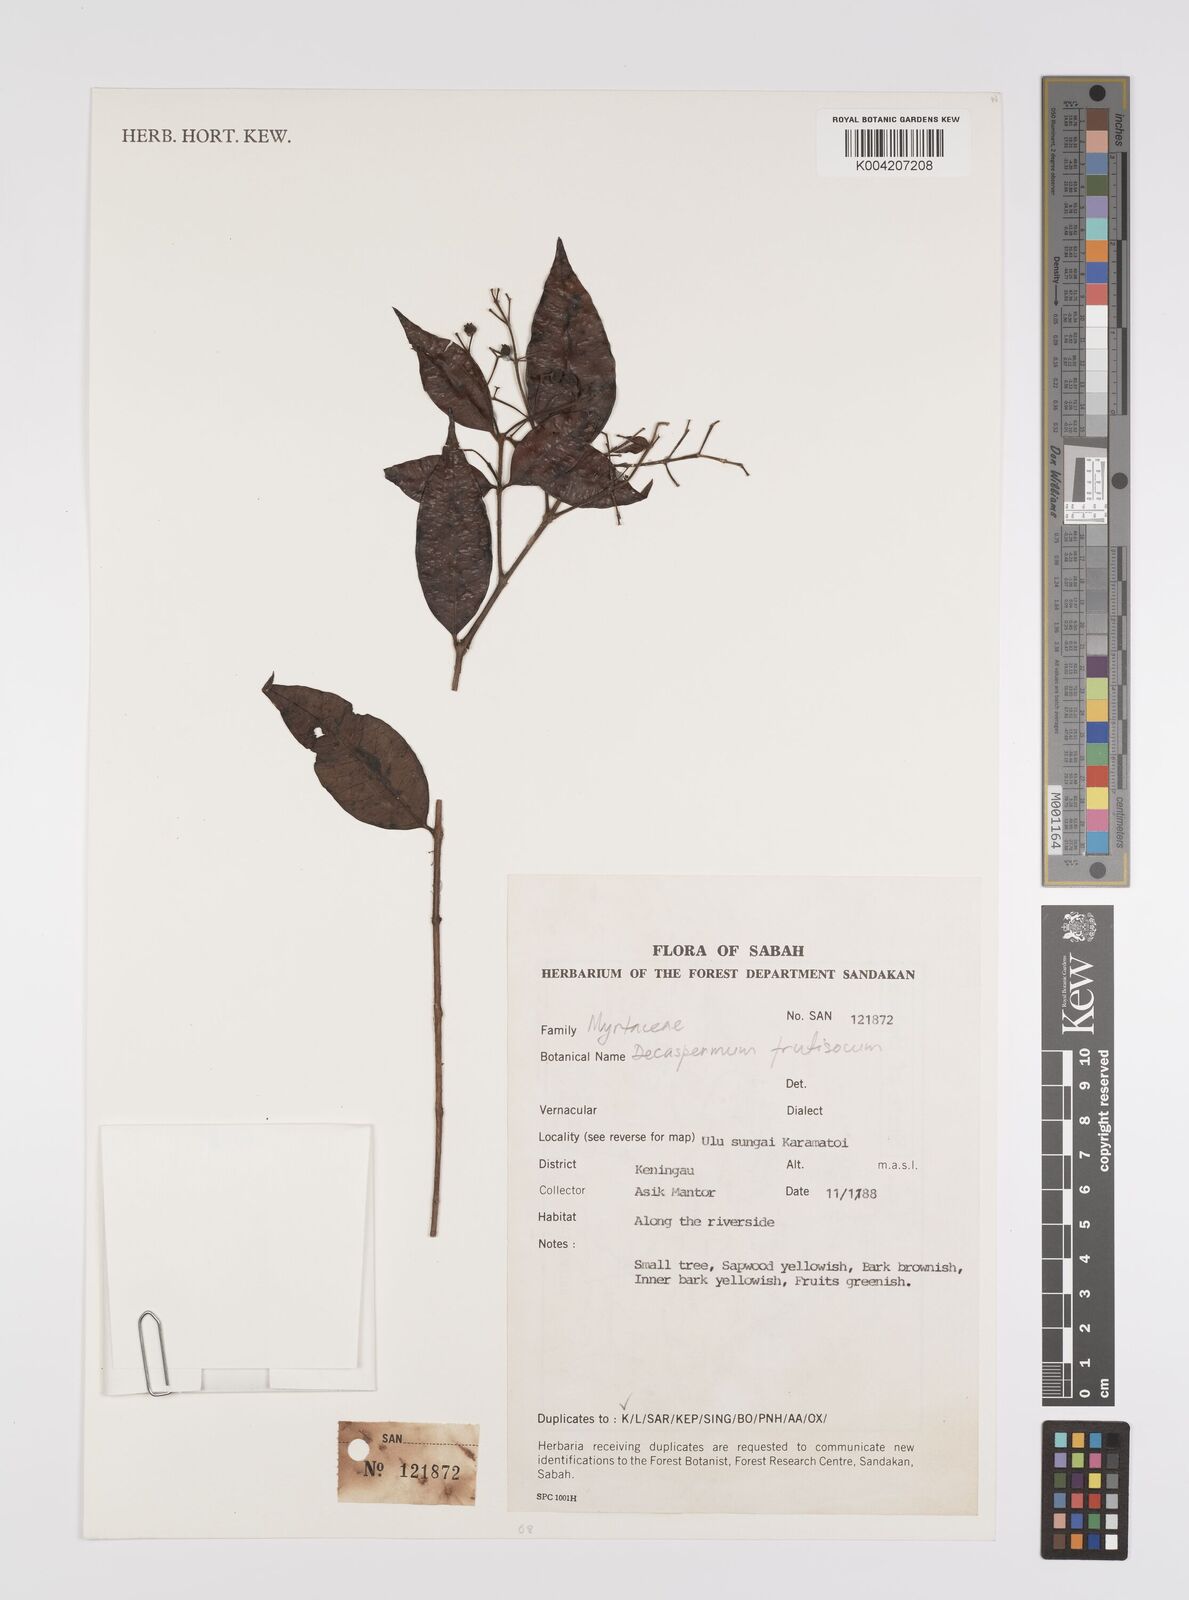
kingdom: Plantae
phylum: Tracheophyta
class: Magnoliopsida
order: Myrtales
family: Myrtaceae
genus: Decaspermum
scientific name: Decaspermum parviflorum
